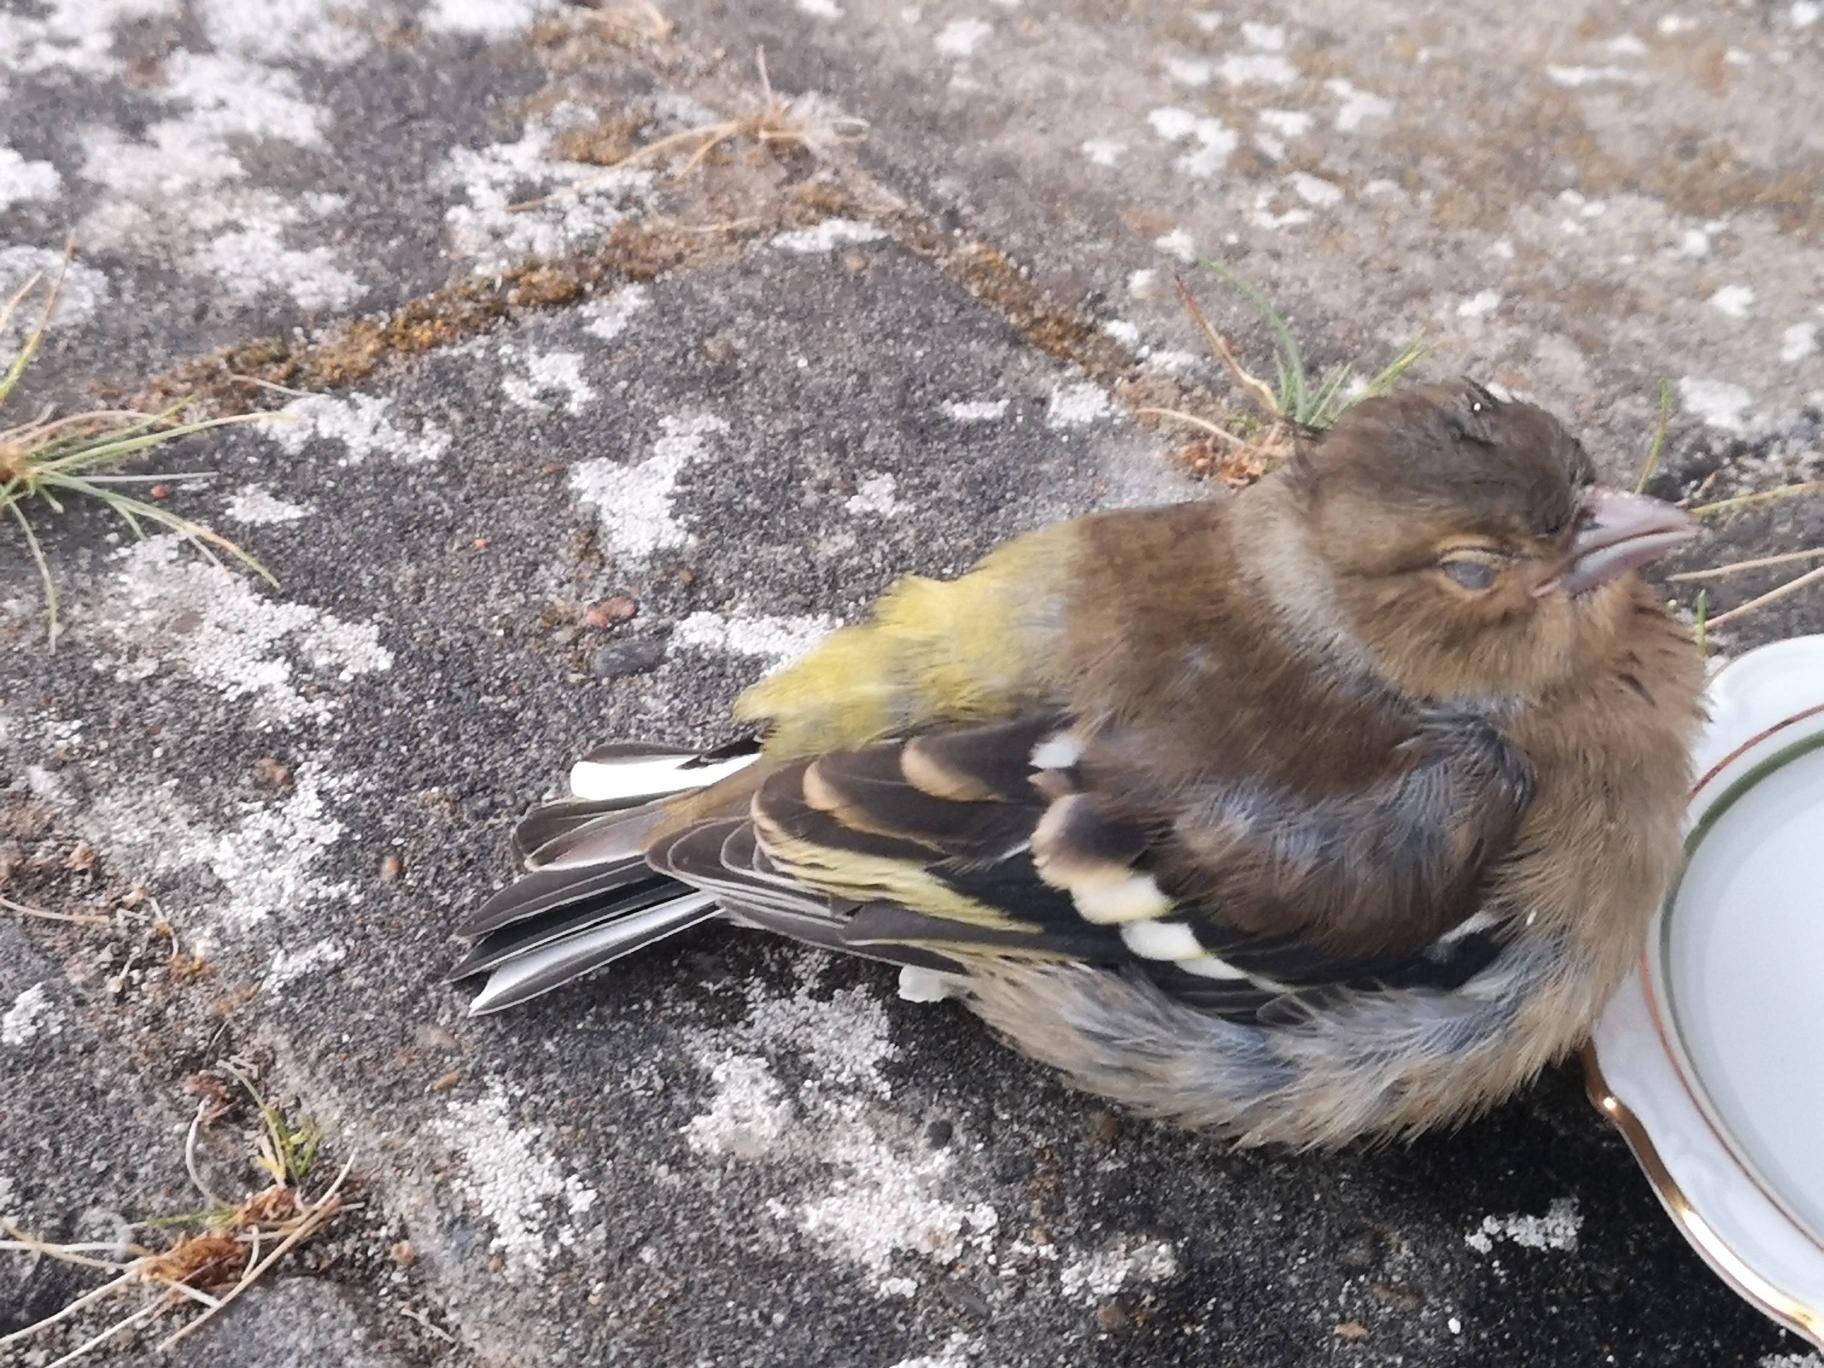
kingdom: Animalia
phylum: Chordata
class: Aves
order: Passeriformes
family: Fringillidae
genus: Fringilla
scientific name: Fringilla coelebs
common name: Bogfinke
